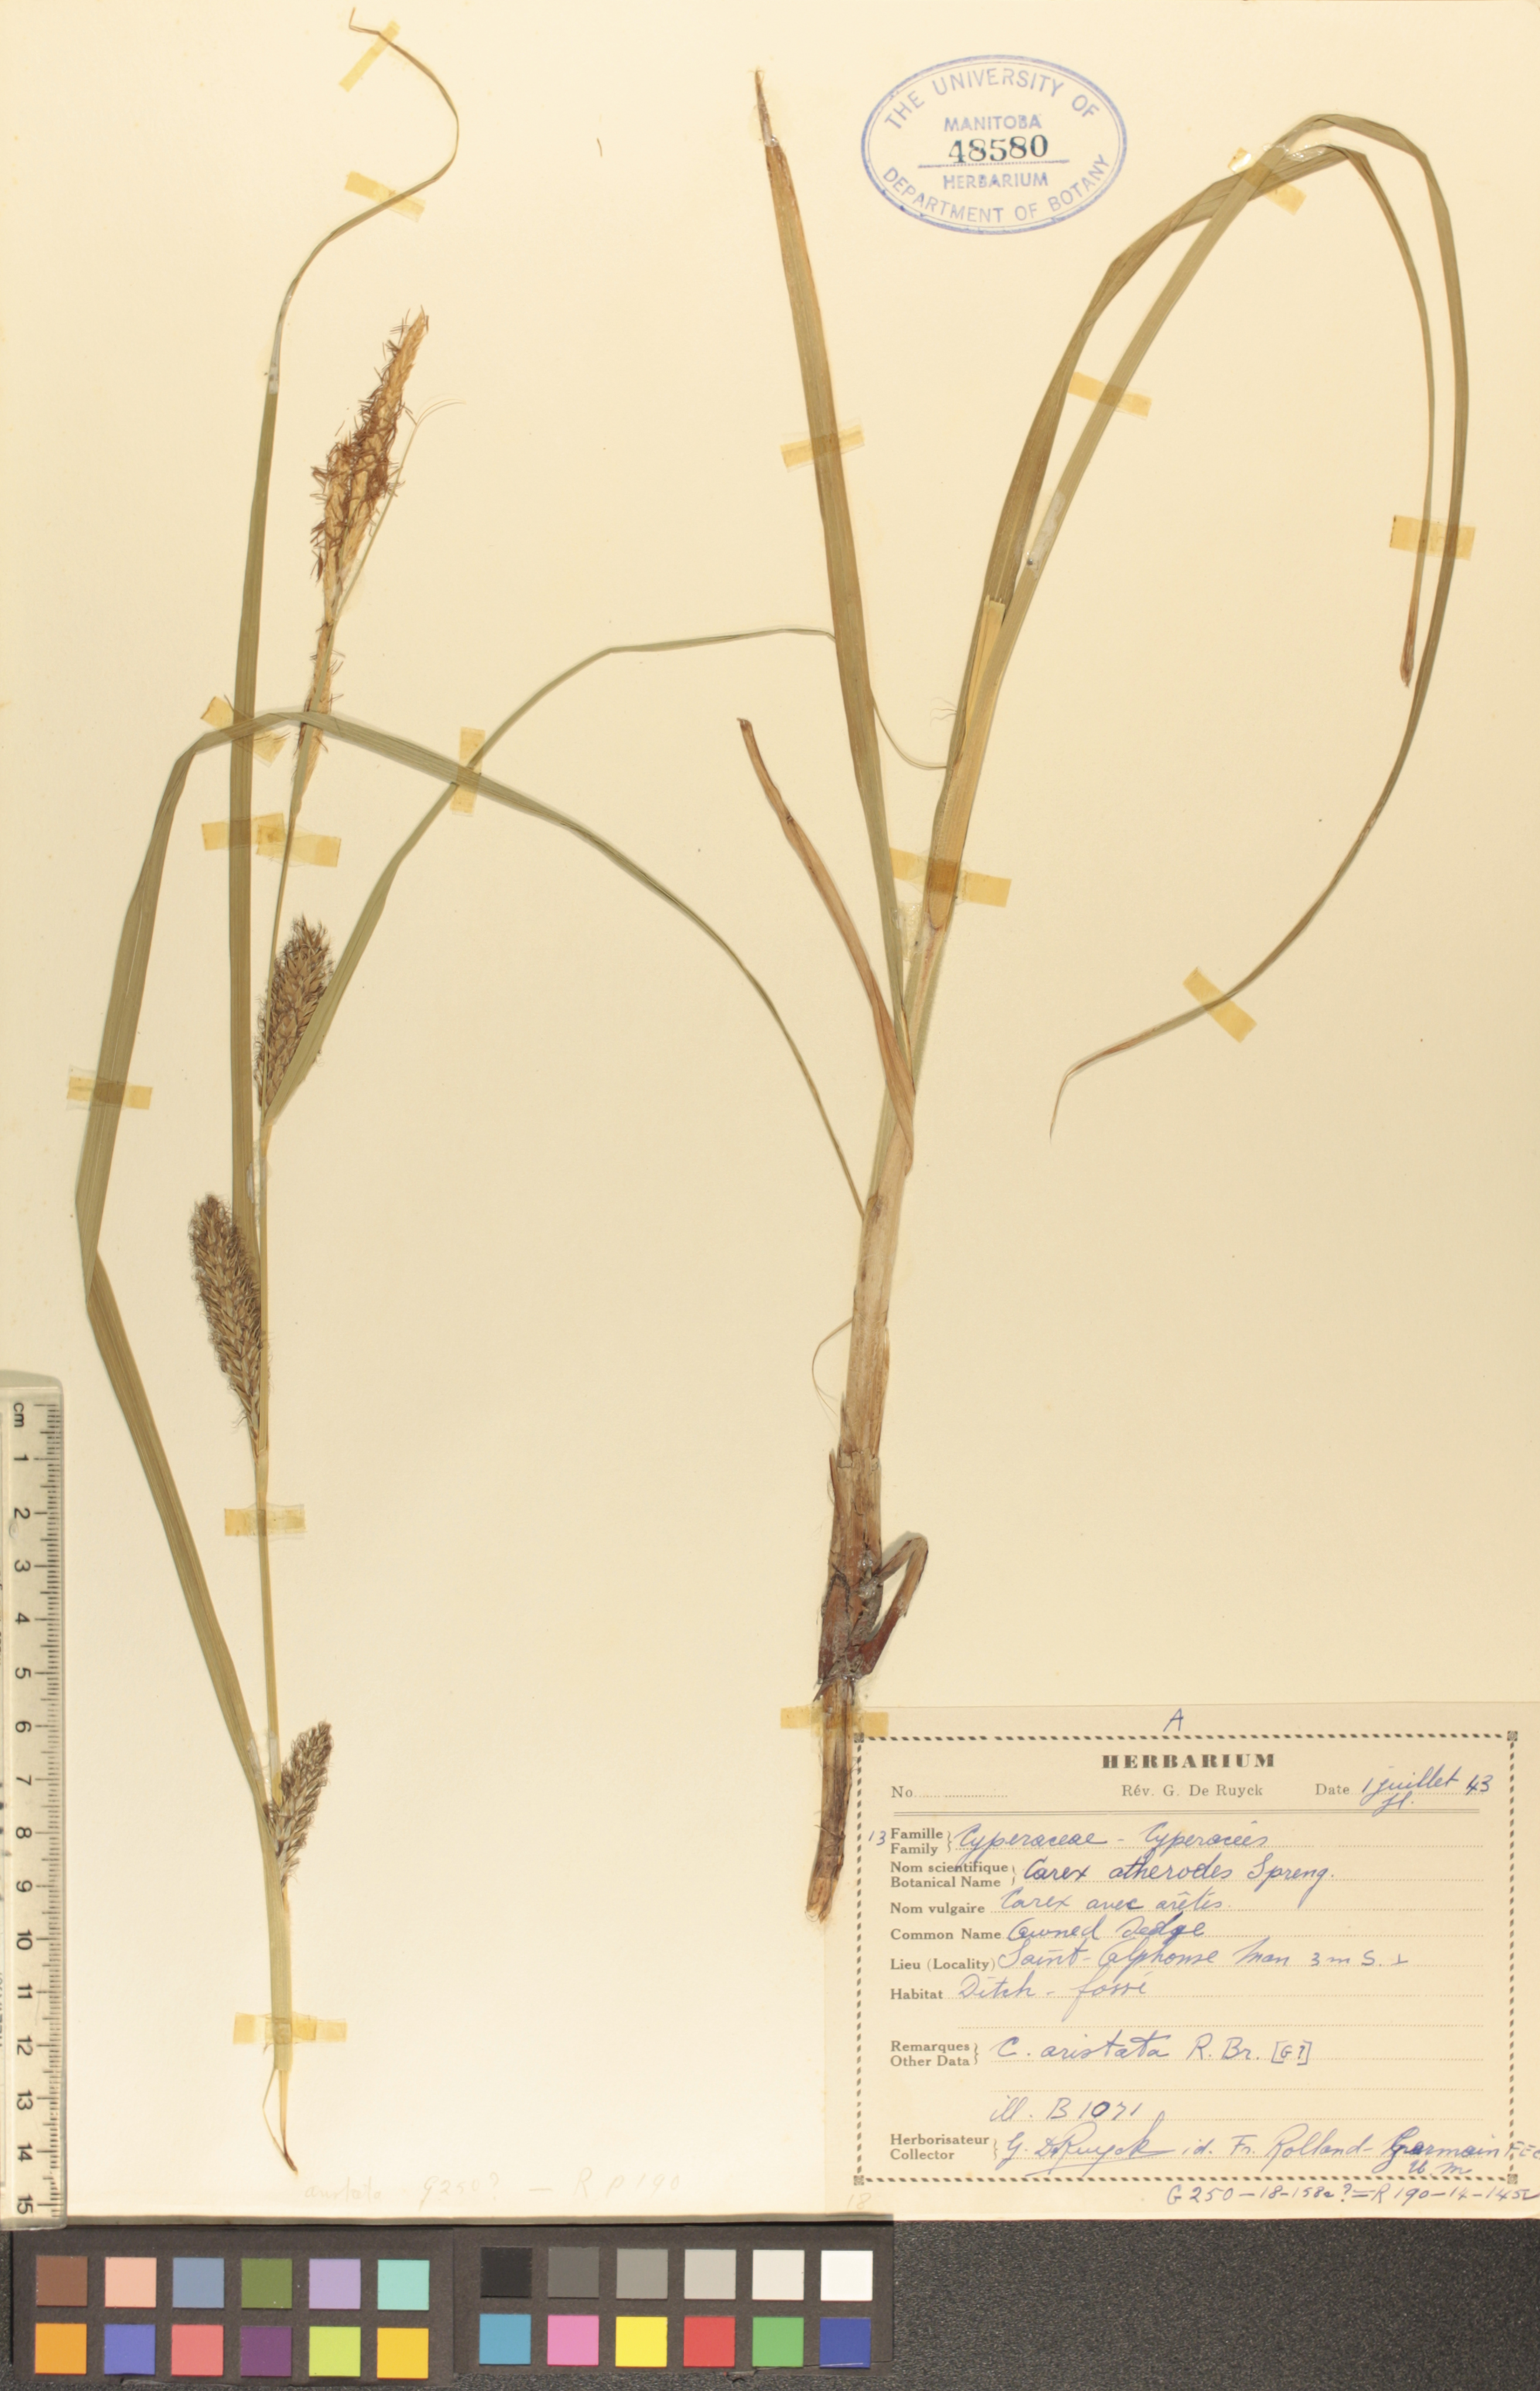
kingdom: Plantae
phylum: Tracheophyta
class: Liliopsida
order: Poales
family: Cyperaceae
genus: Carex
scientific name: Carex atherodes
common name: Wheat sedge
